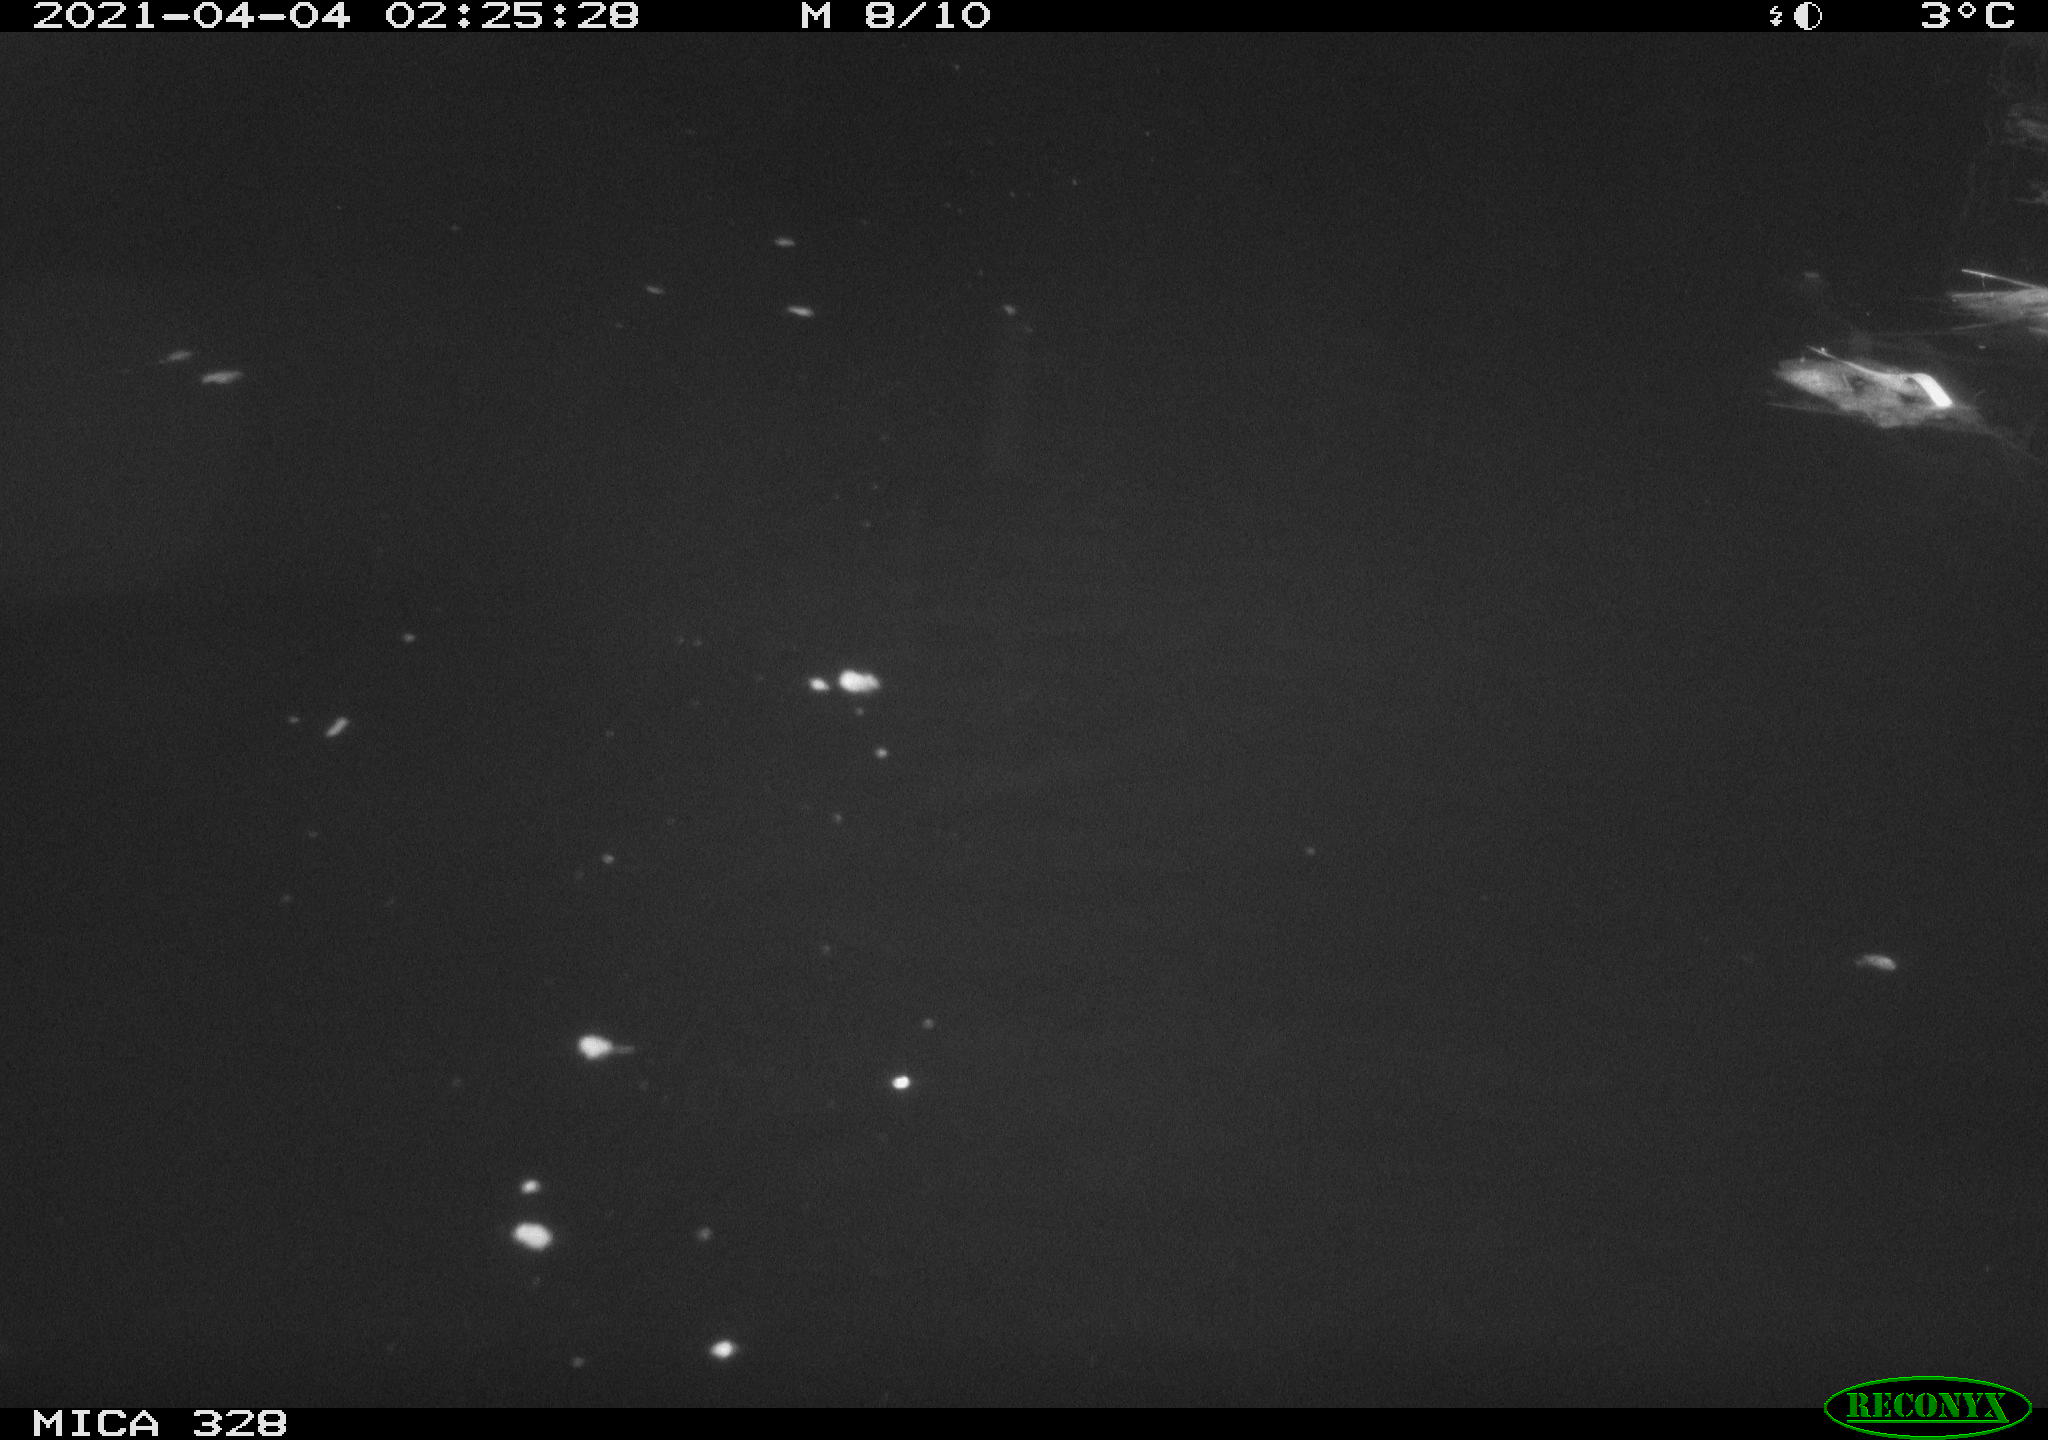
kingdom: Animalia
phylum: Chordata
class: Mammalia
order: Rodentia
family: Cricetidae
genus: Ondatra
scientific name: Ondatra zibethicus
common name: Muskrat
